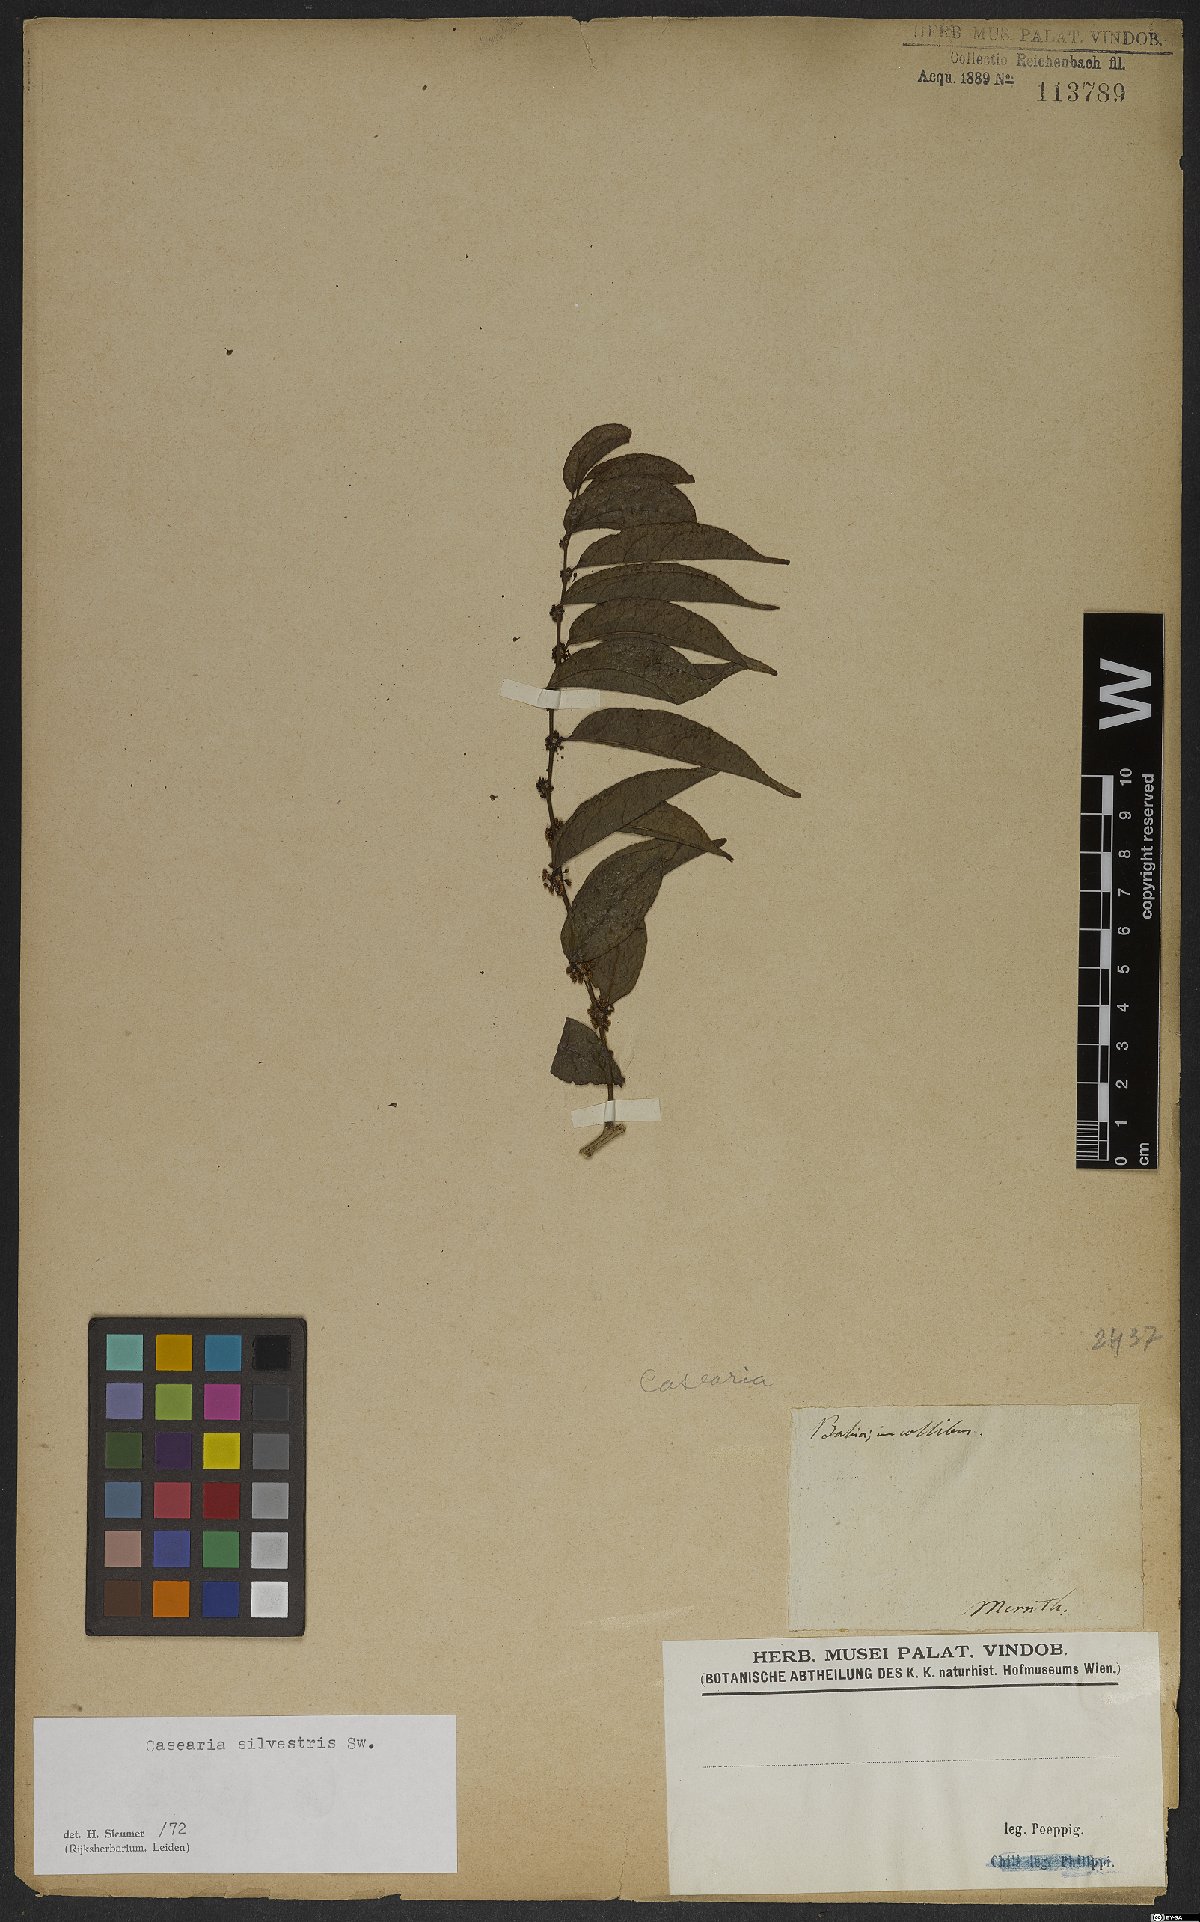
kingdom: Plantae
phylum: Tracheophyta
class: Magnoliopsida
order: Malpighiales
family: Salicaceae
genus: Casearia
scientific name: Casearia sylvestris
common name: Wild sage
